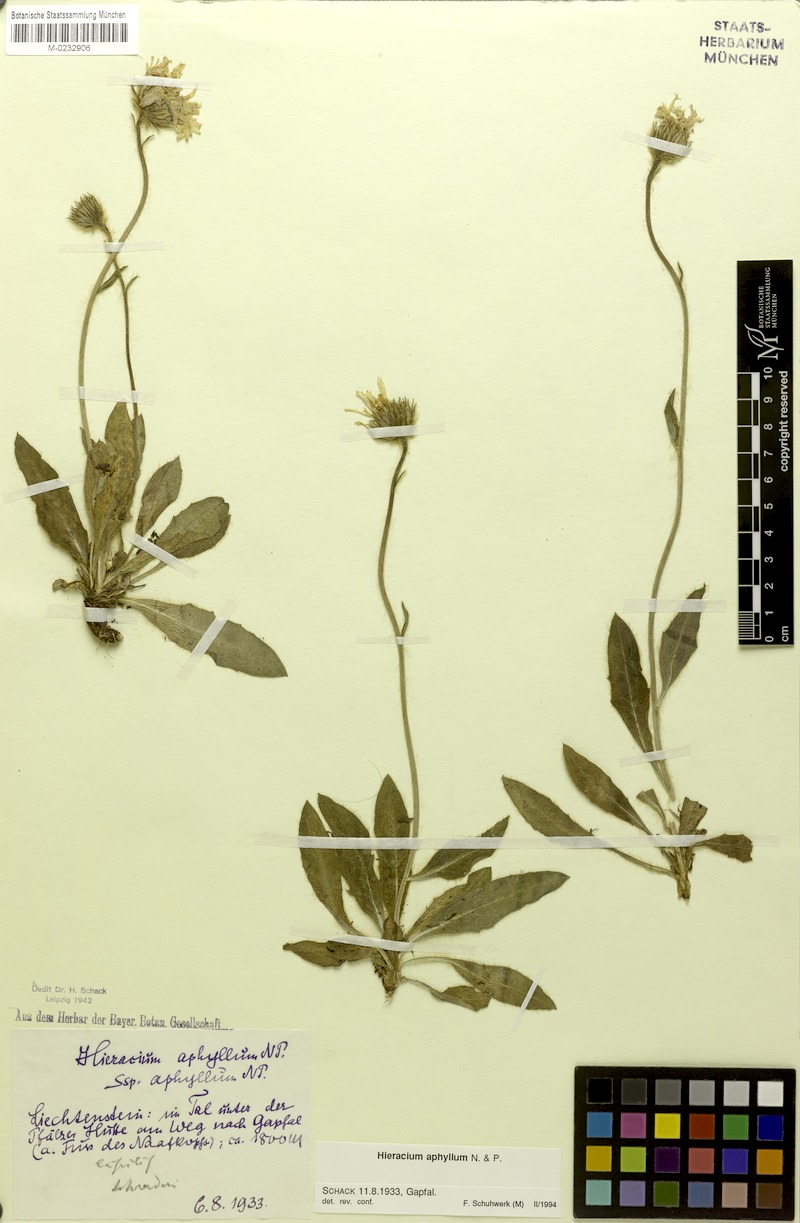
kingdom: Plantae
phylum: Tracheophyta
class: Magnoliopsida
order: Asterales
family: Asteraceae
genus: Hieracium
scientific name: Hieracium aphyllum
